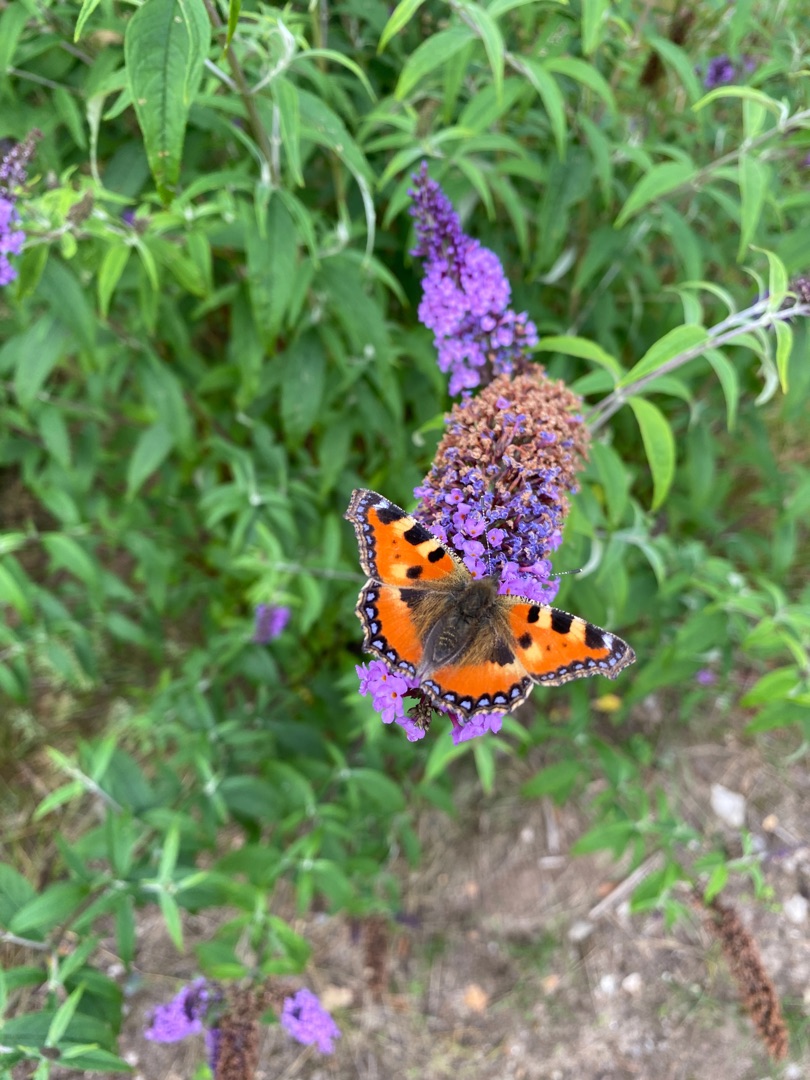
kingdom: Animalia
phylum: Arthropoda
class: Insecta
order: Lepidoptera
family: Nymphalidae
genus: Aglais
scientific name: Aglais urticae
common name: Nældens takvinge
